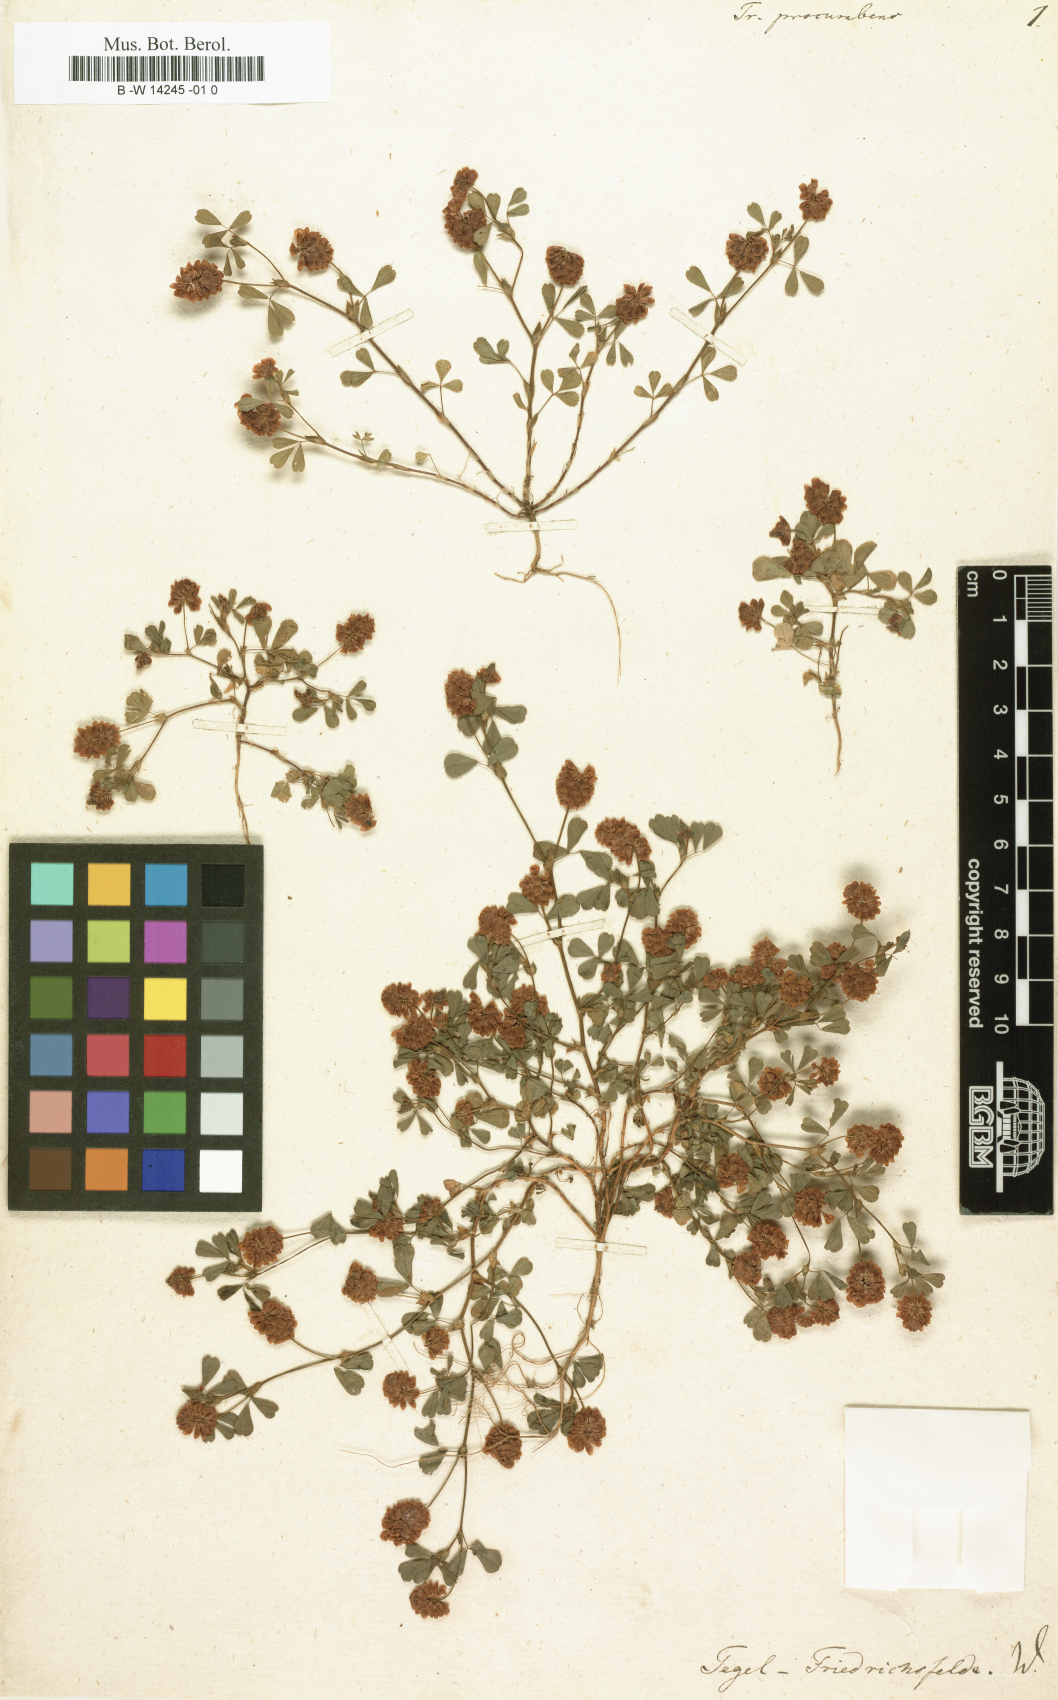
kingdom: Plantae
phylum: Tracheophyta
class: Magnoliopsida
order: Fabales
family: Fabaceae
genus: Trifolium
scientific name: Trifolium micranthum
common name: Slender trefoil
